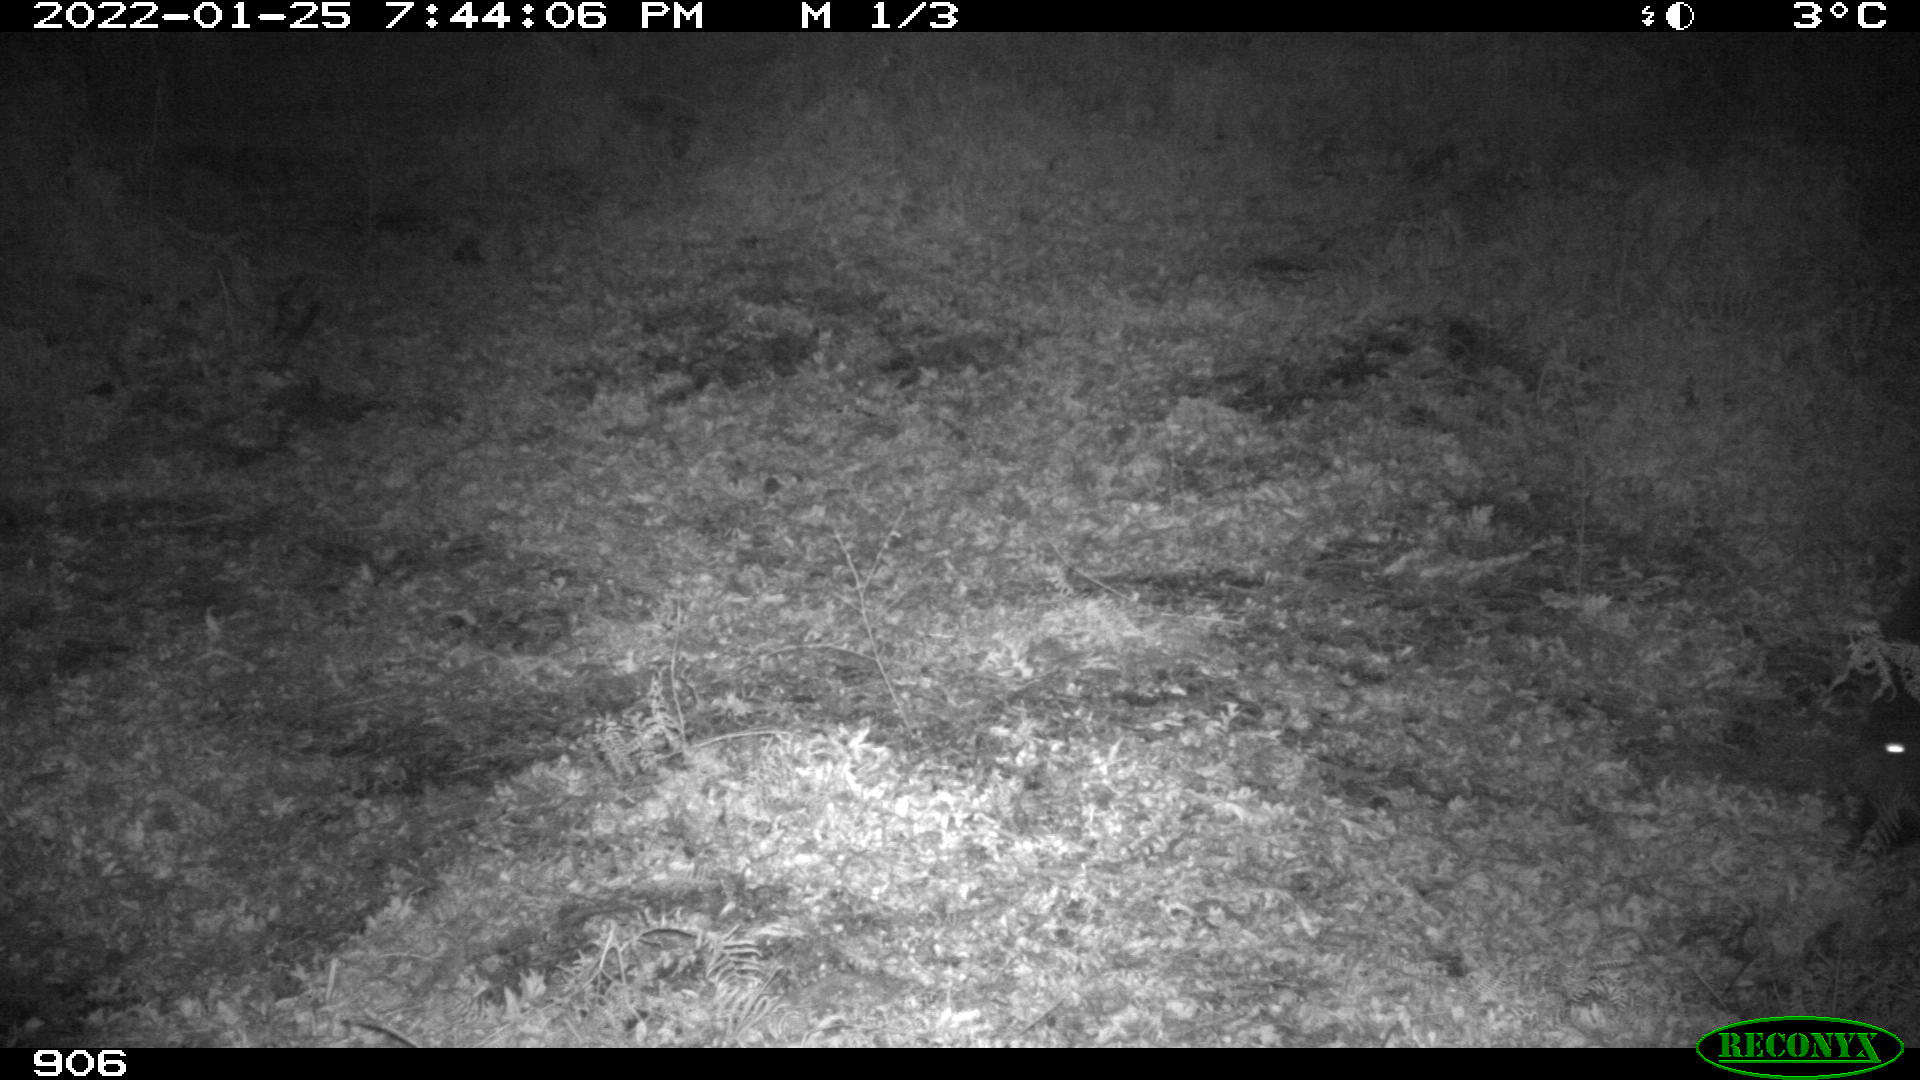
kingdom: Animalia
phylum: Chordata
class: Mammalia
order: Artiodactyla
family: Suidae
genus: Sus
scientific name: Sus scrofa
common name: Wild boar
